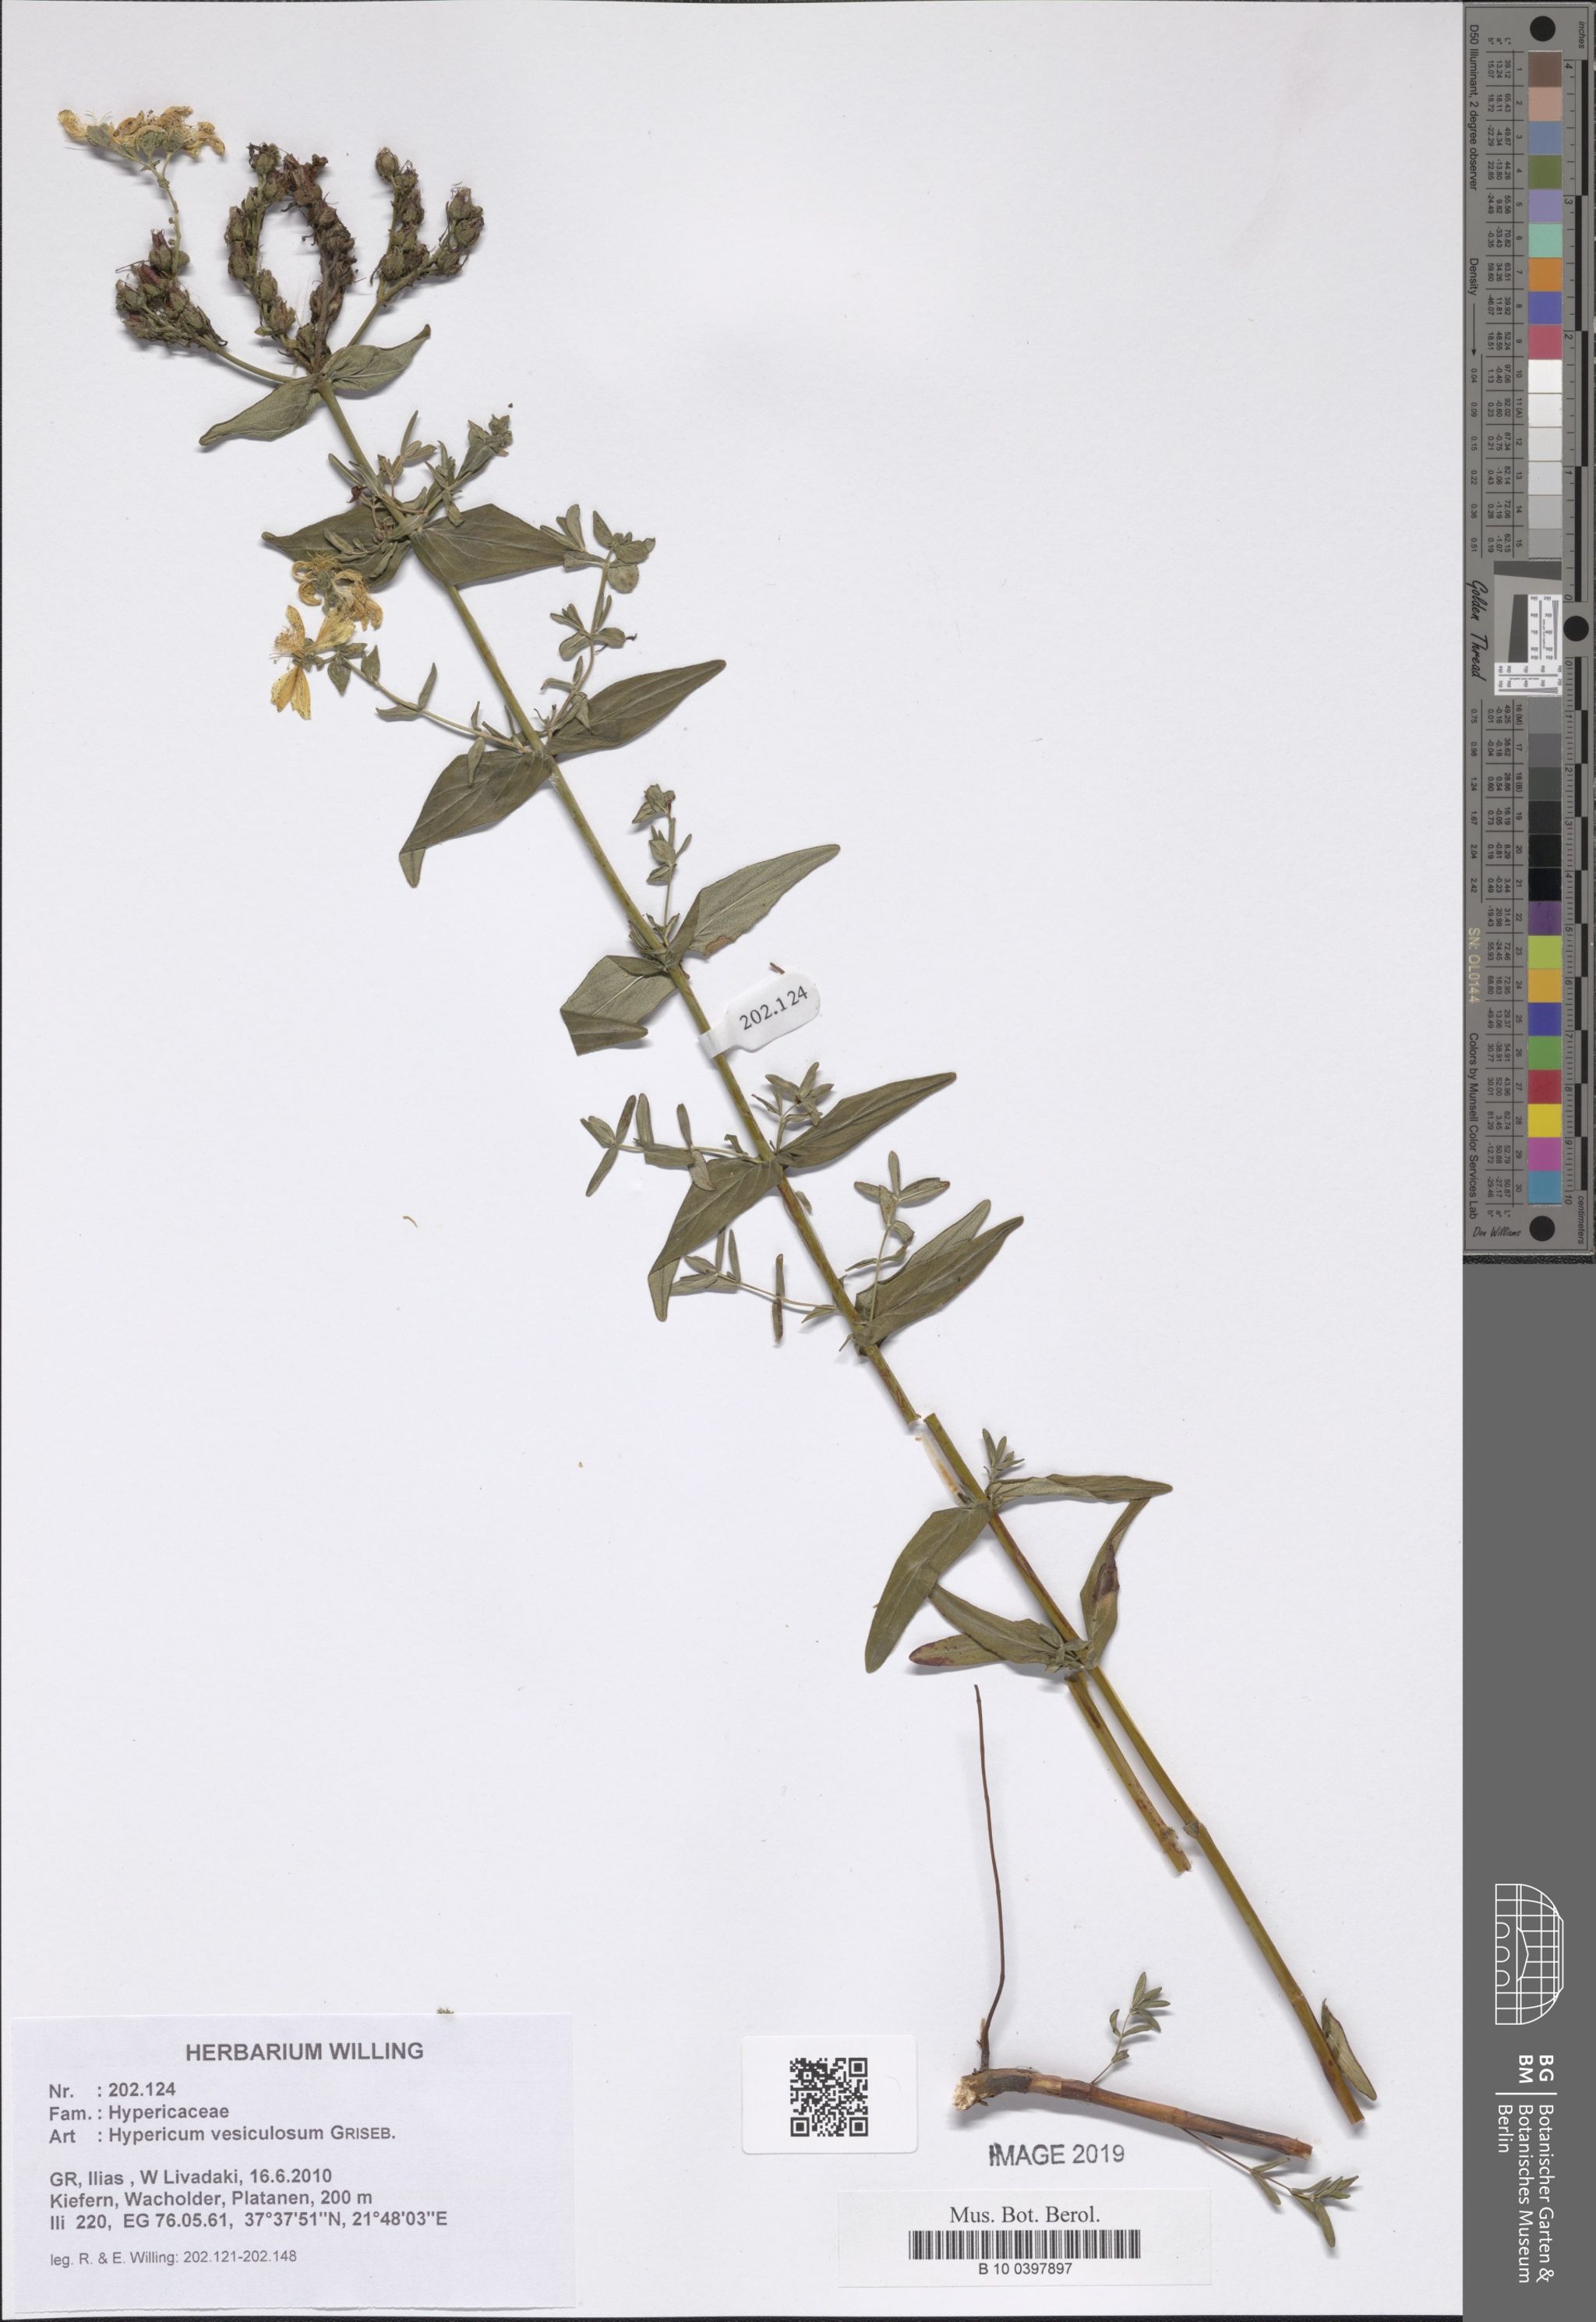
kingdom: Plantae
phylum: Tracheophyta
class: Magnoliopsida
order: Malpighiales
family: Hypericaceae
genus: Hypericum
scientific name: Hypericum vesiculosum
